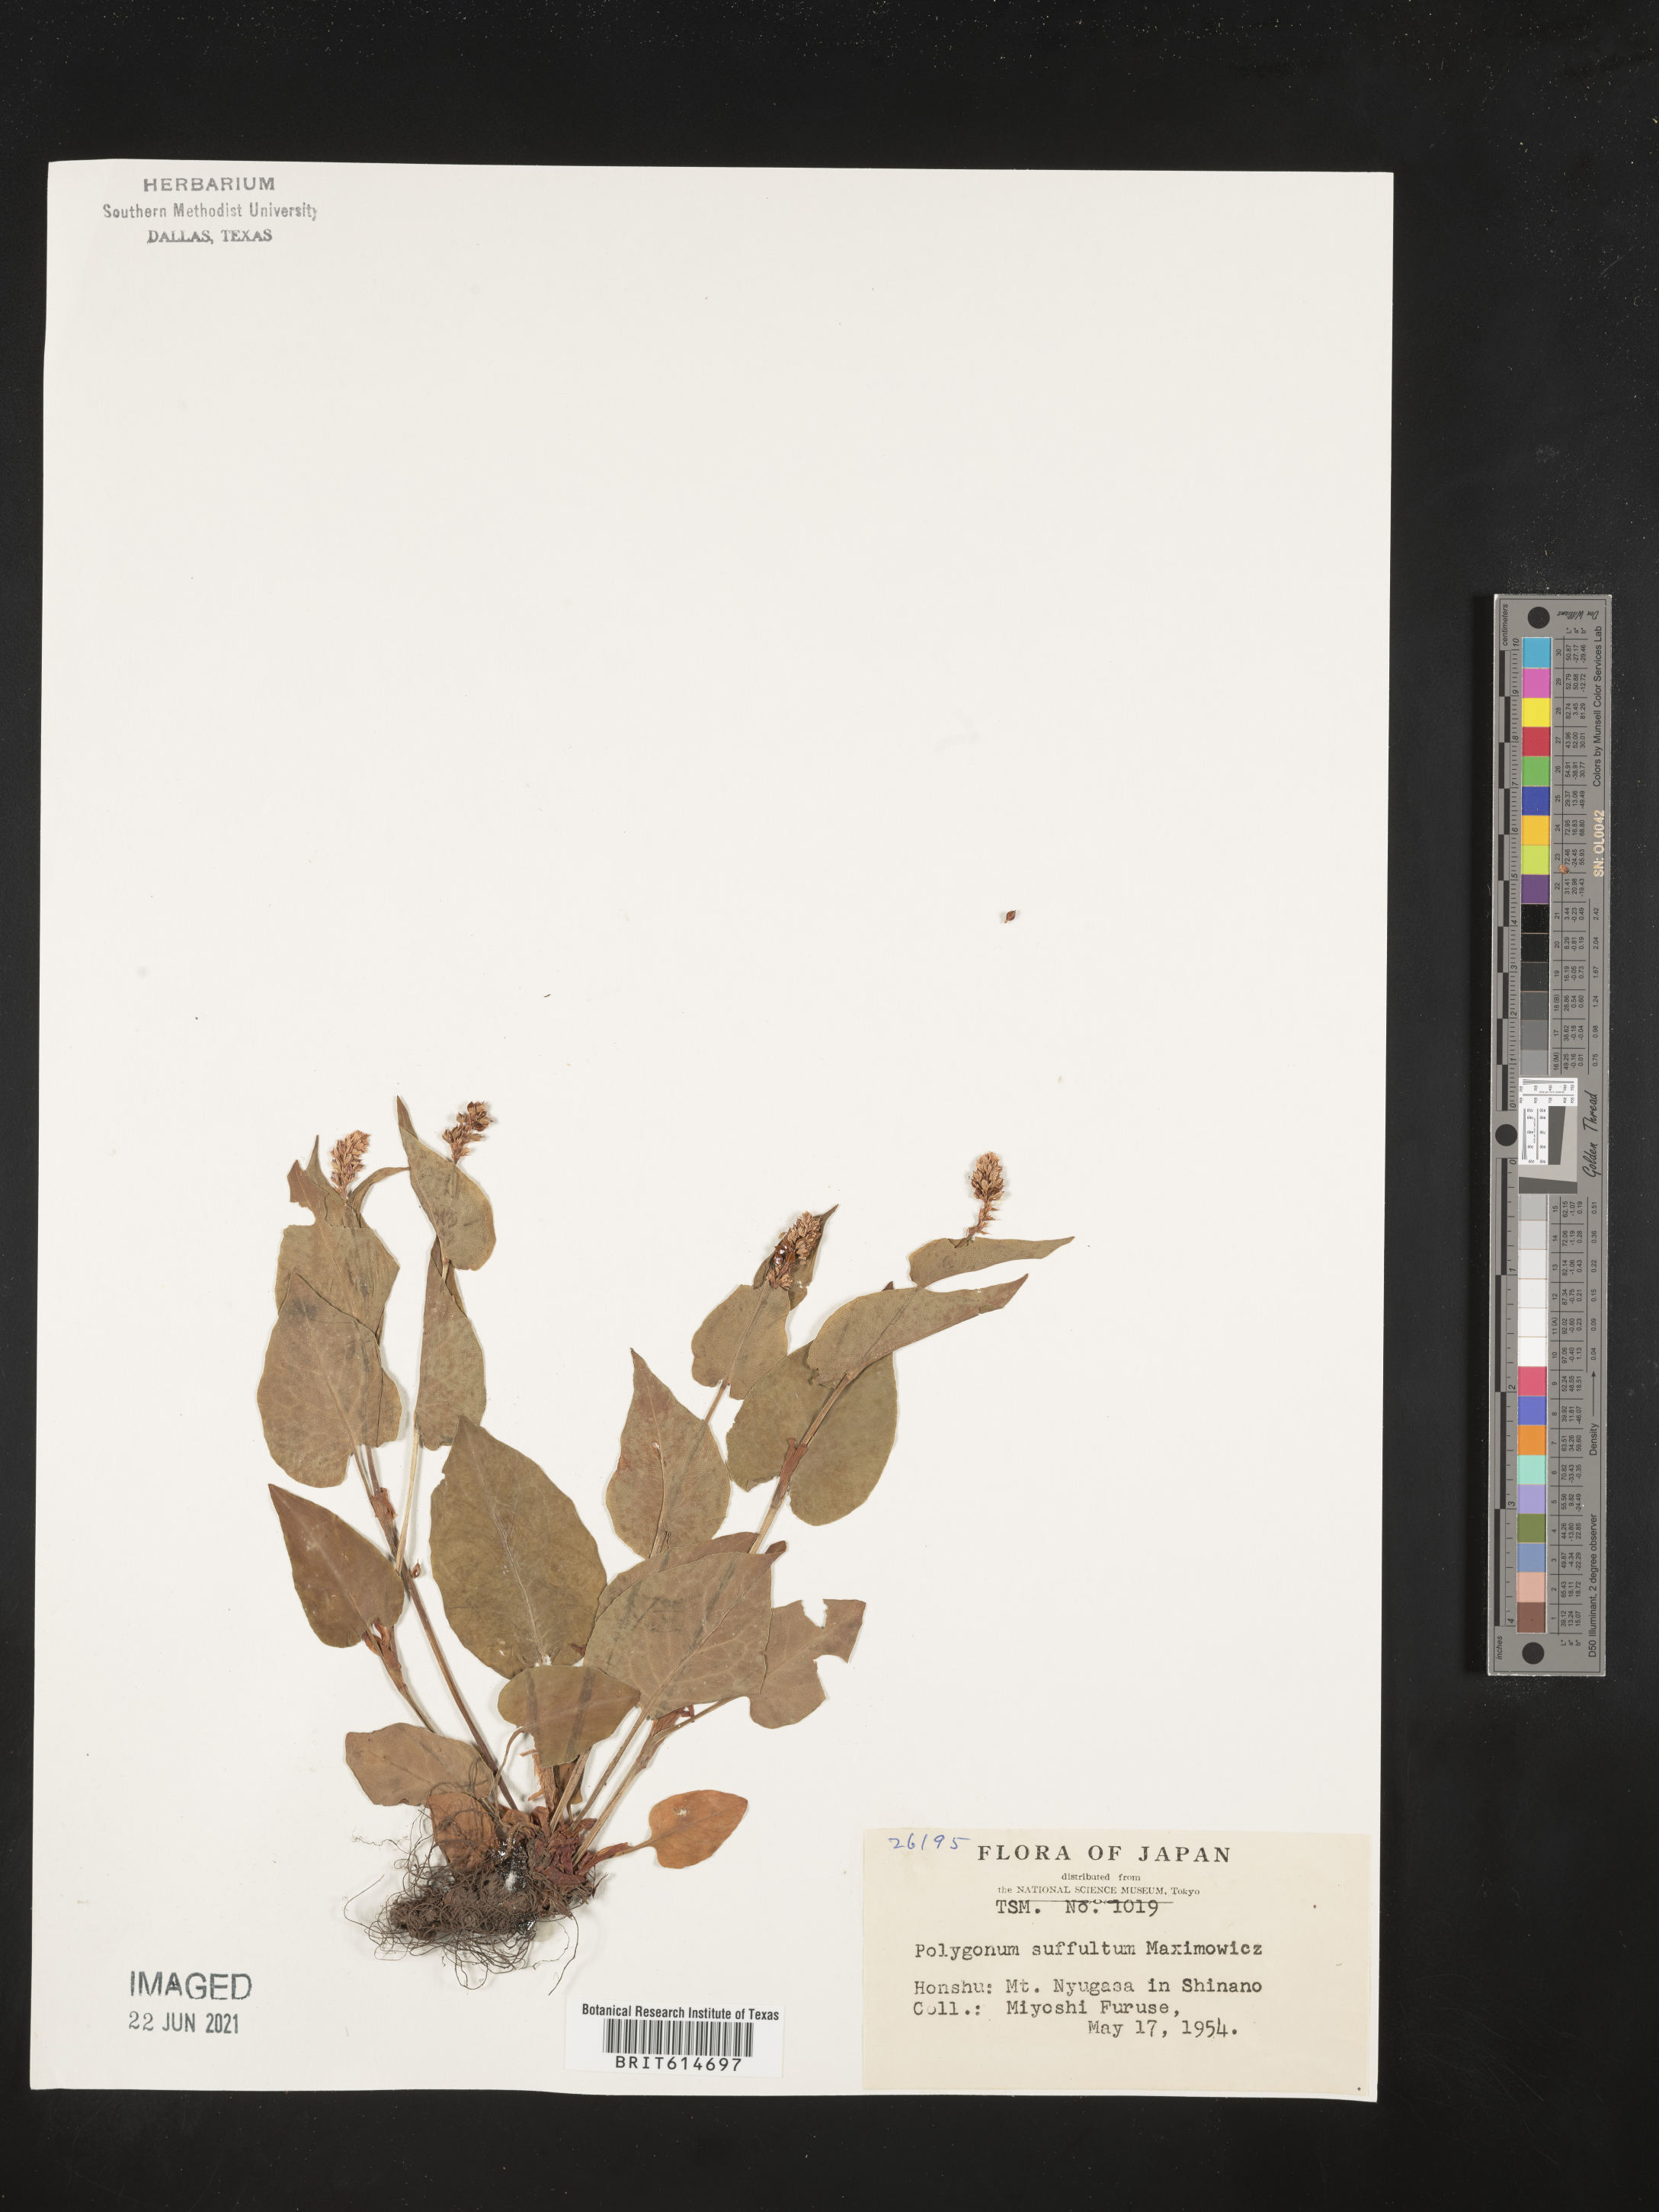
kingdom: Plantae
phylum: Tracheophyta
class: Magnoliopsida
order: Caryophyllales
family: Polygonaceae
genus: Bistorta
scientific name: Bistorta suffulta
